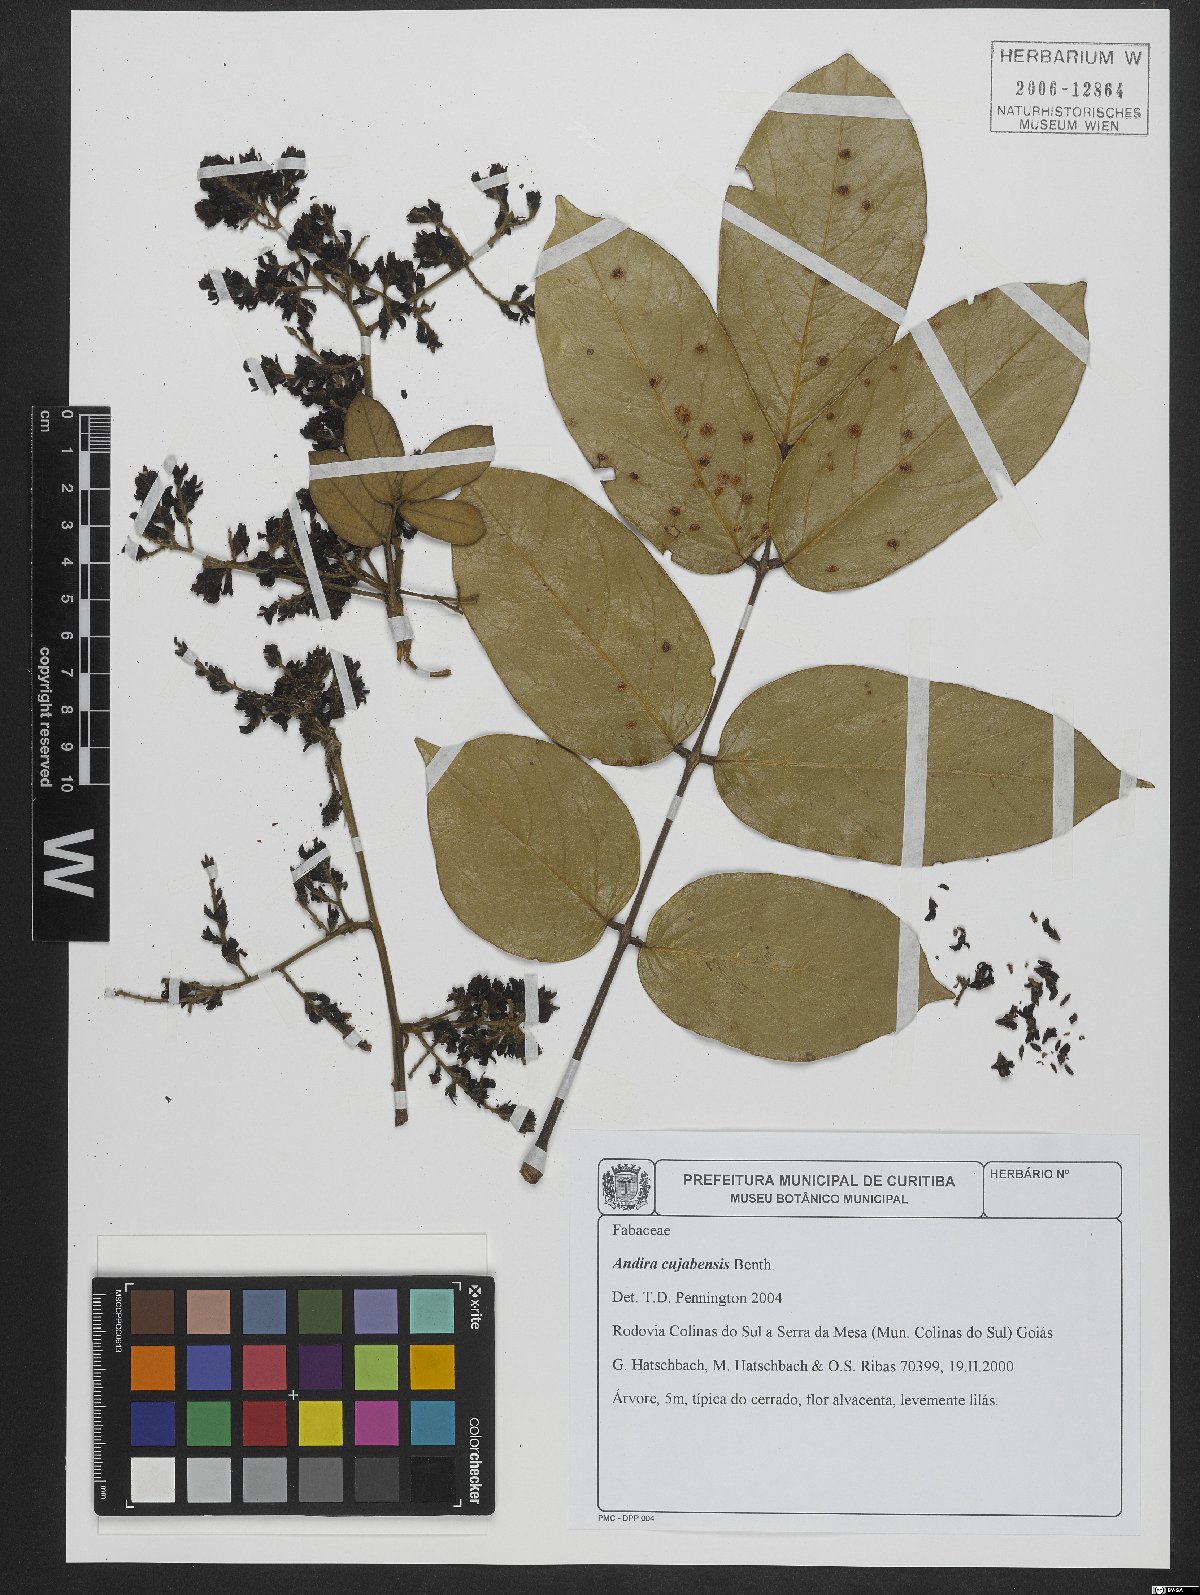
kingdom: Plantae
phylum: Tracheophyta
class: Magnoliopsida
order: Fabales
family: Fabaceae
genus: Andira
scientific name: Andira cujabensis
